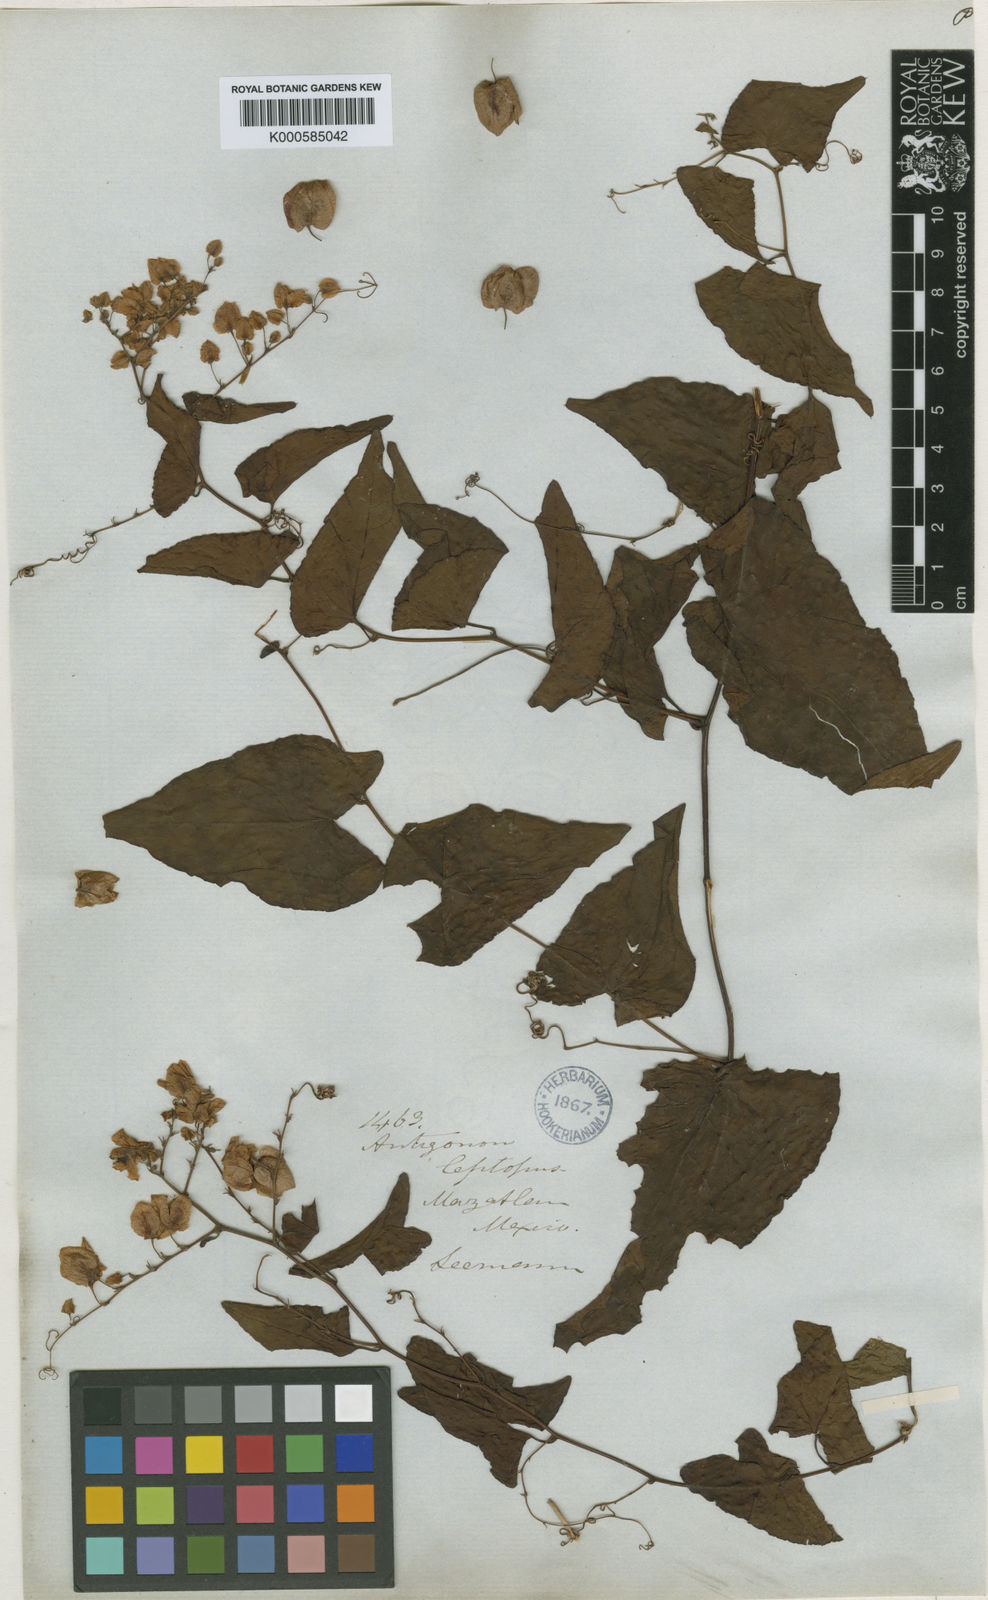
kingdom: Plantae
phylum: Tracheophyta
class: Magnoliopsida
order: Caryophyllales
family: Polygonaceae
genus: Antigonon
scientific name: Antigonon leptopus
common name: Coral vine
